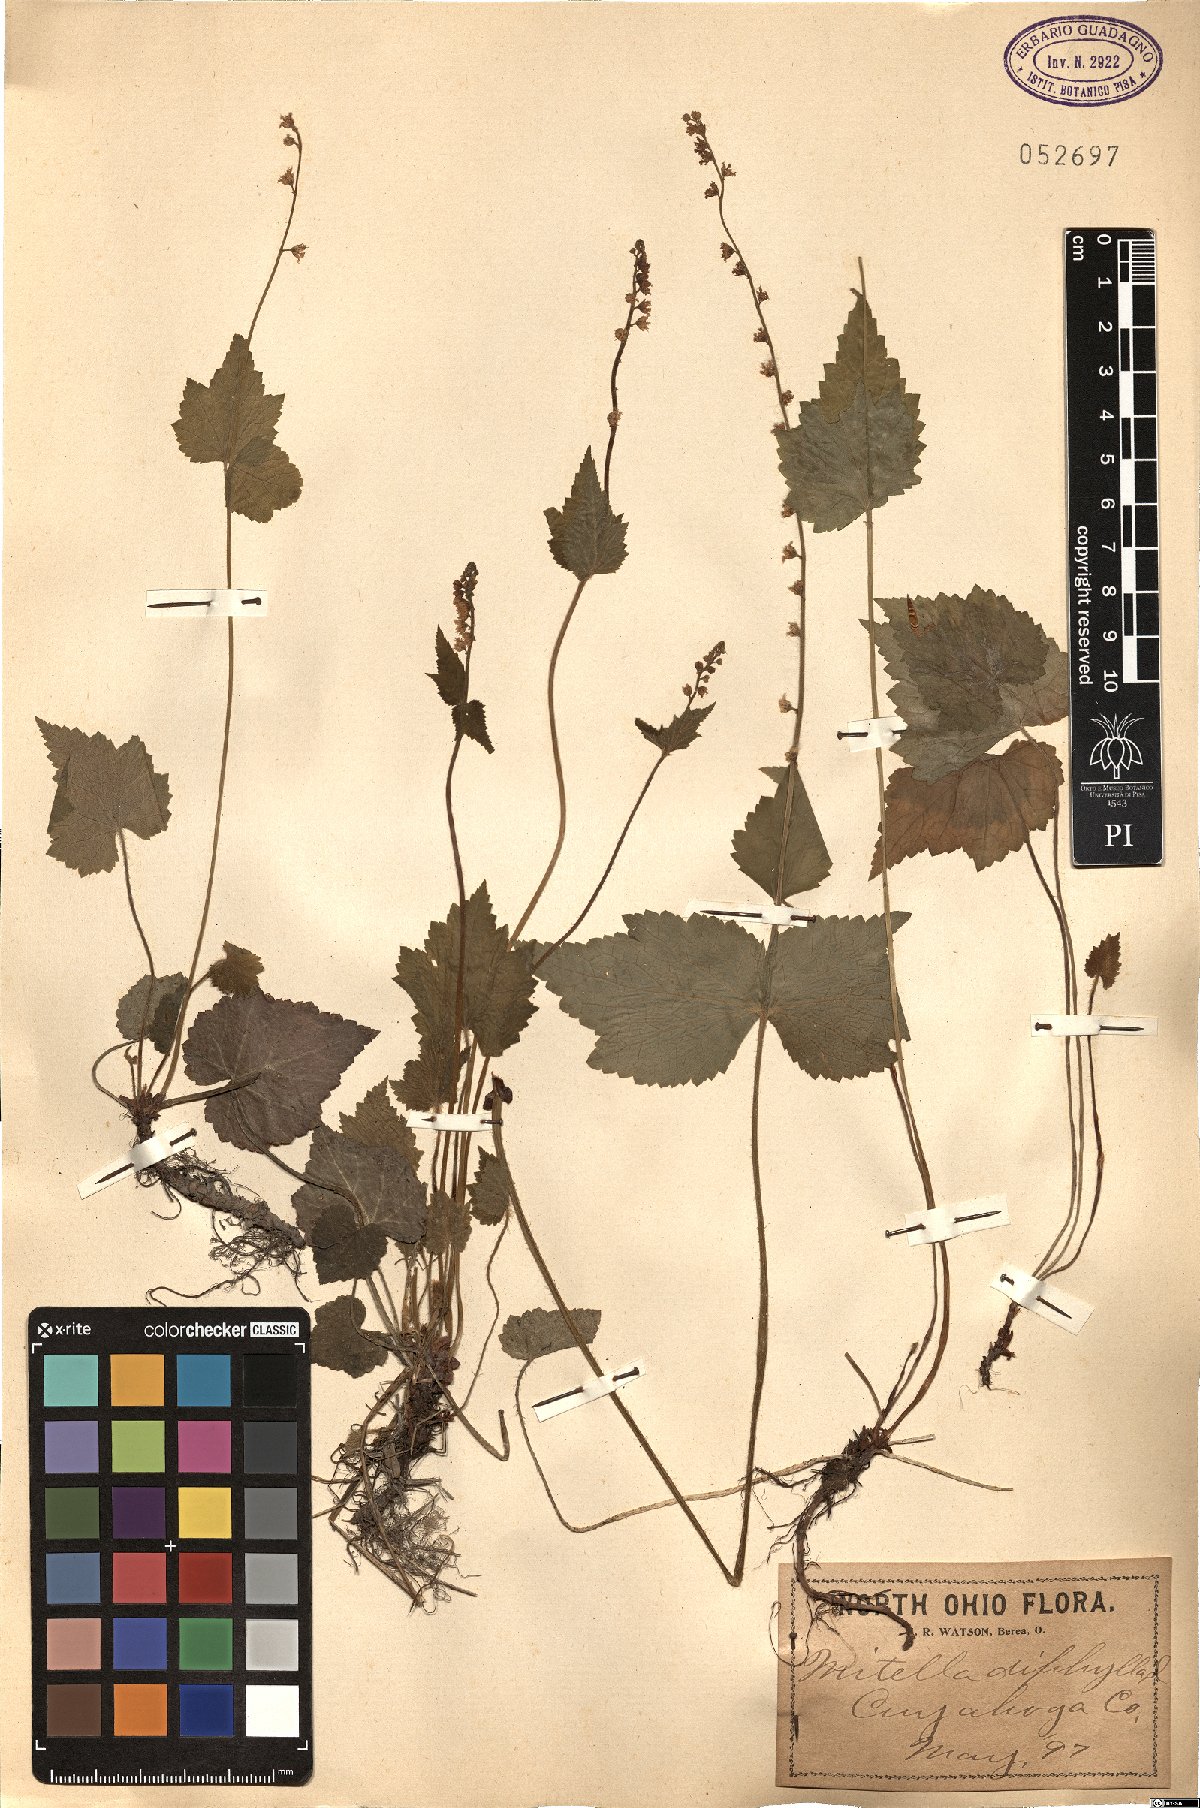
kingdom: Plantae
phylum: Tracheophyta
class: Magnoliopsida
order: Saxifragales
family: Saxifragaceae
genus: Mitella
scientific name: Mitella diphylla
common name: Coolwort
